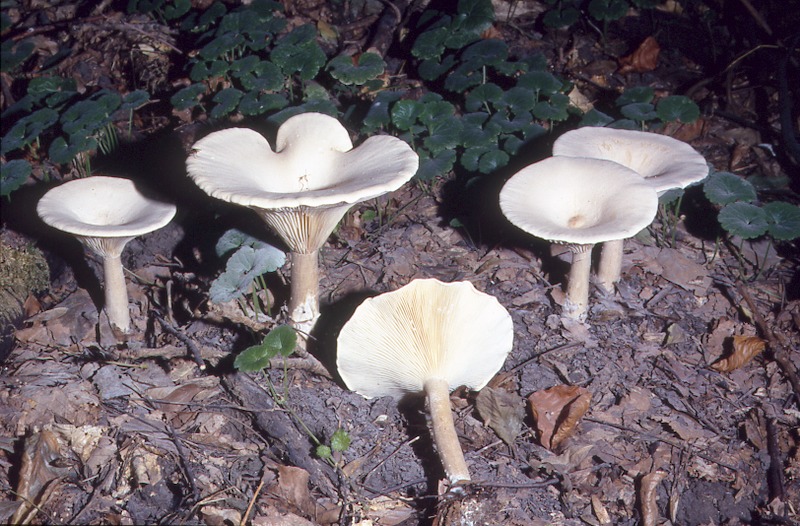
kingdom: Fungi
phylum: Basidiomycota
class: Agaricomycetes
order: Agaricales
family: Tricholomataceae
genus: Infundibulicybe
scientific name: Infundibulicybe geotropa
